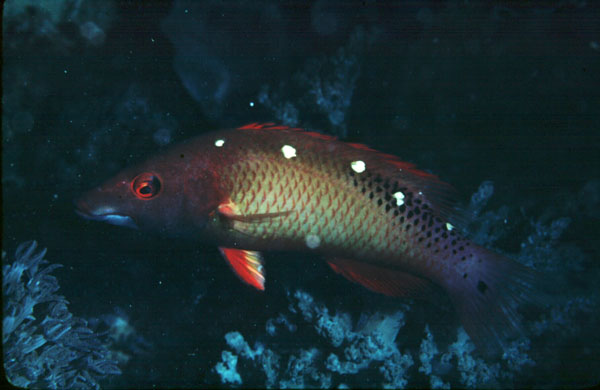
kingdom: Animalia
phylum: Chordata
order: Perciformes
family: Labridae
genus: Bodianus
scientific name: Bodianus diana
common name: Diana's hogfish
